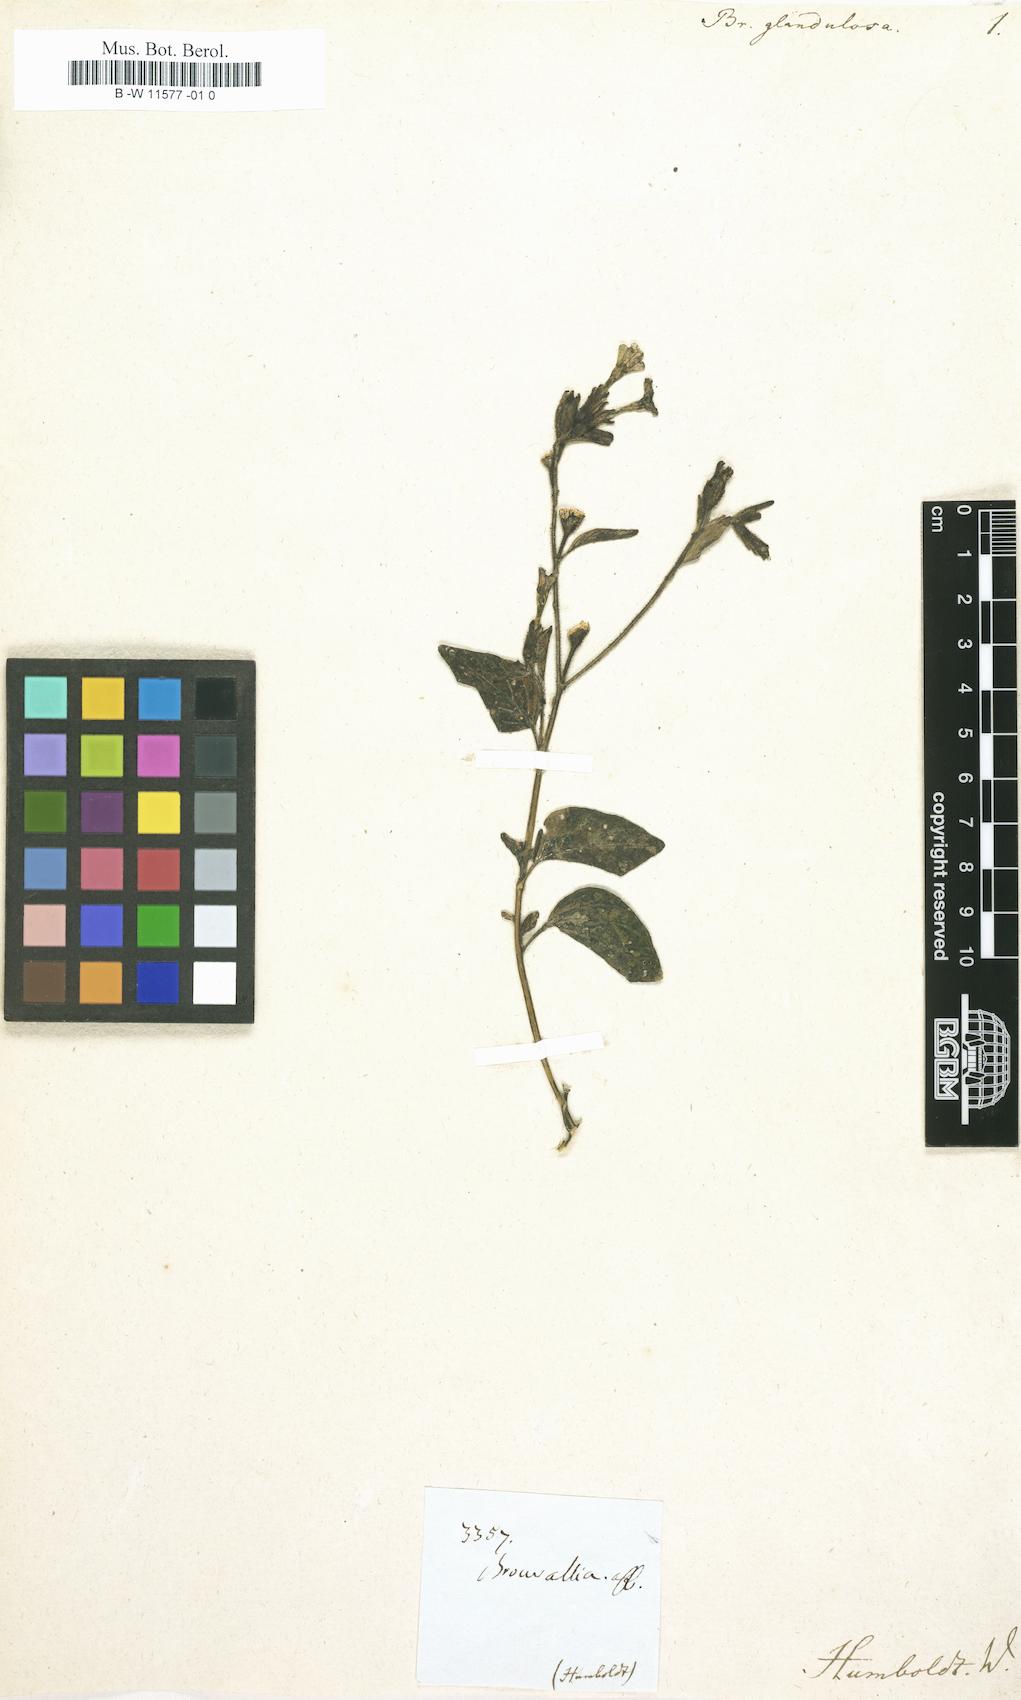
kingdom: Plantae
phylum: Tracheophyta
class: Magnoliopsida
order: Solanales
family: Solanaceae
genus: Browallia
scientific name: Browallia
